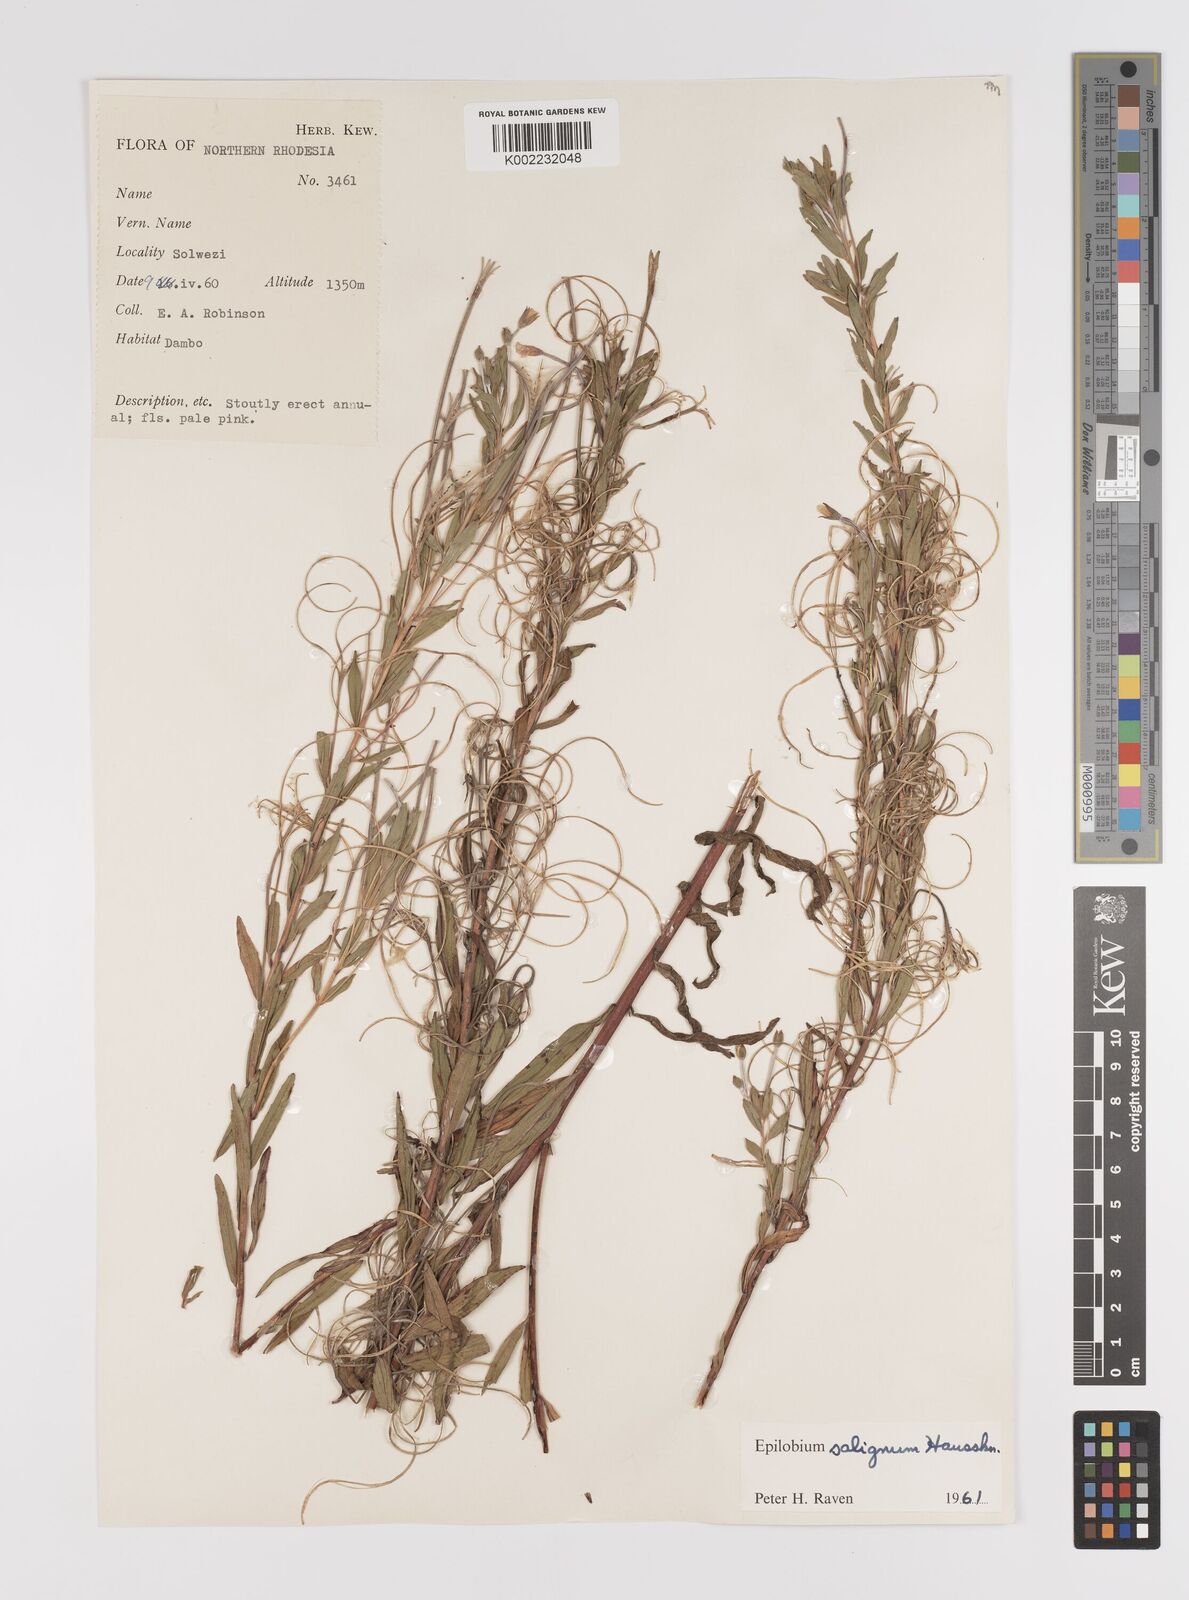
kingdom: Plantae
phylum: Tracheophyta
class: Magnoliopsida
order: Myrtales
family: Onagraceae
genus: Epilobium
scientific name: Epilobium salignum
